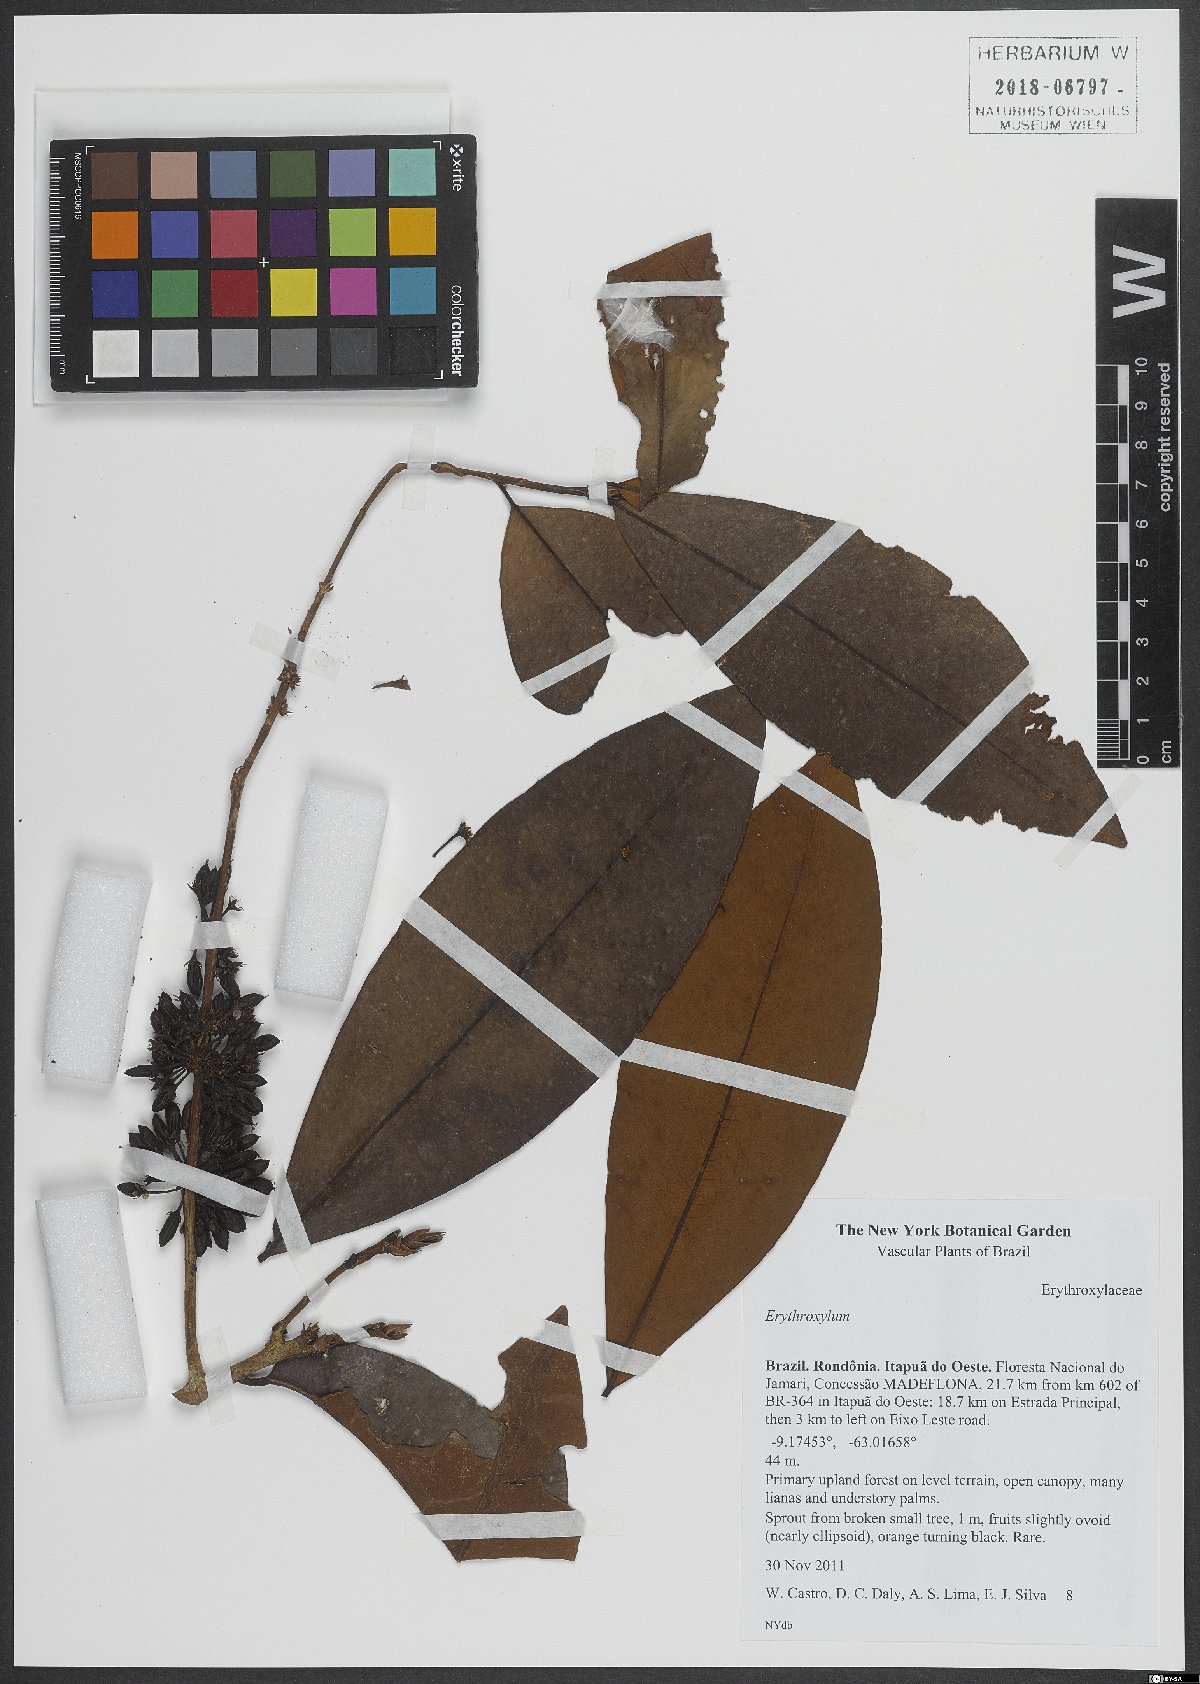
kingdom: Plantae
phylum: Tracheophyta
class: Magnoliopsida
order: Malpighiales
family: Erythroxylaceae
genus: Erythroxylum
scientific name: Erythroxylum
